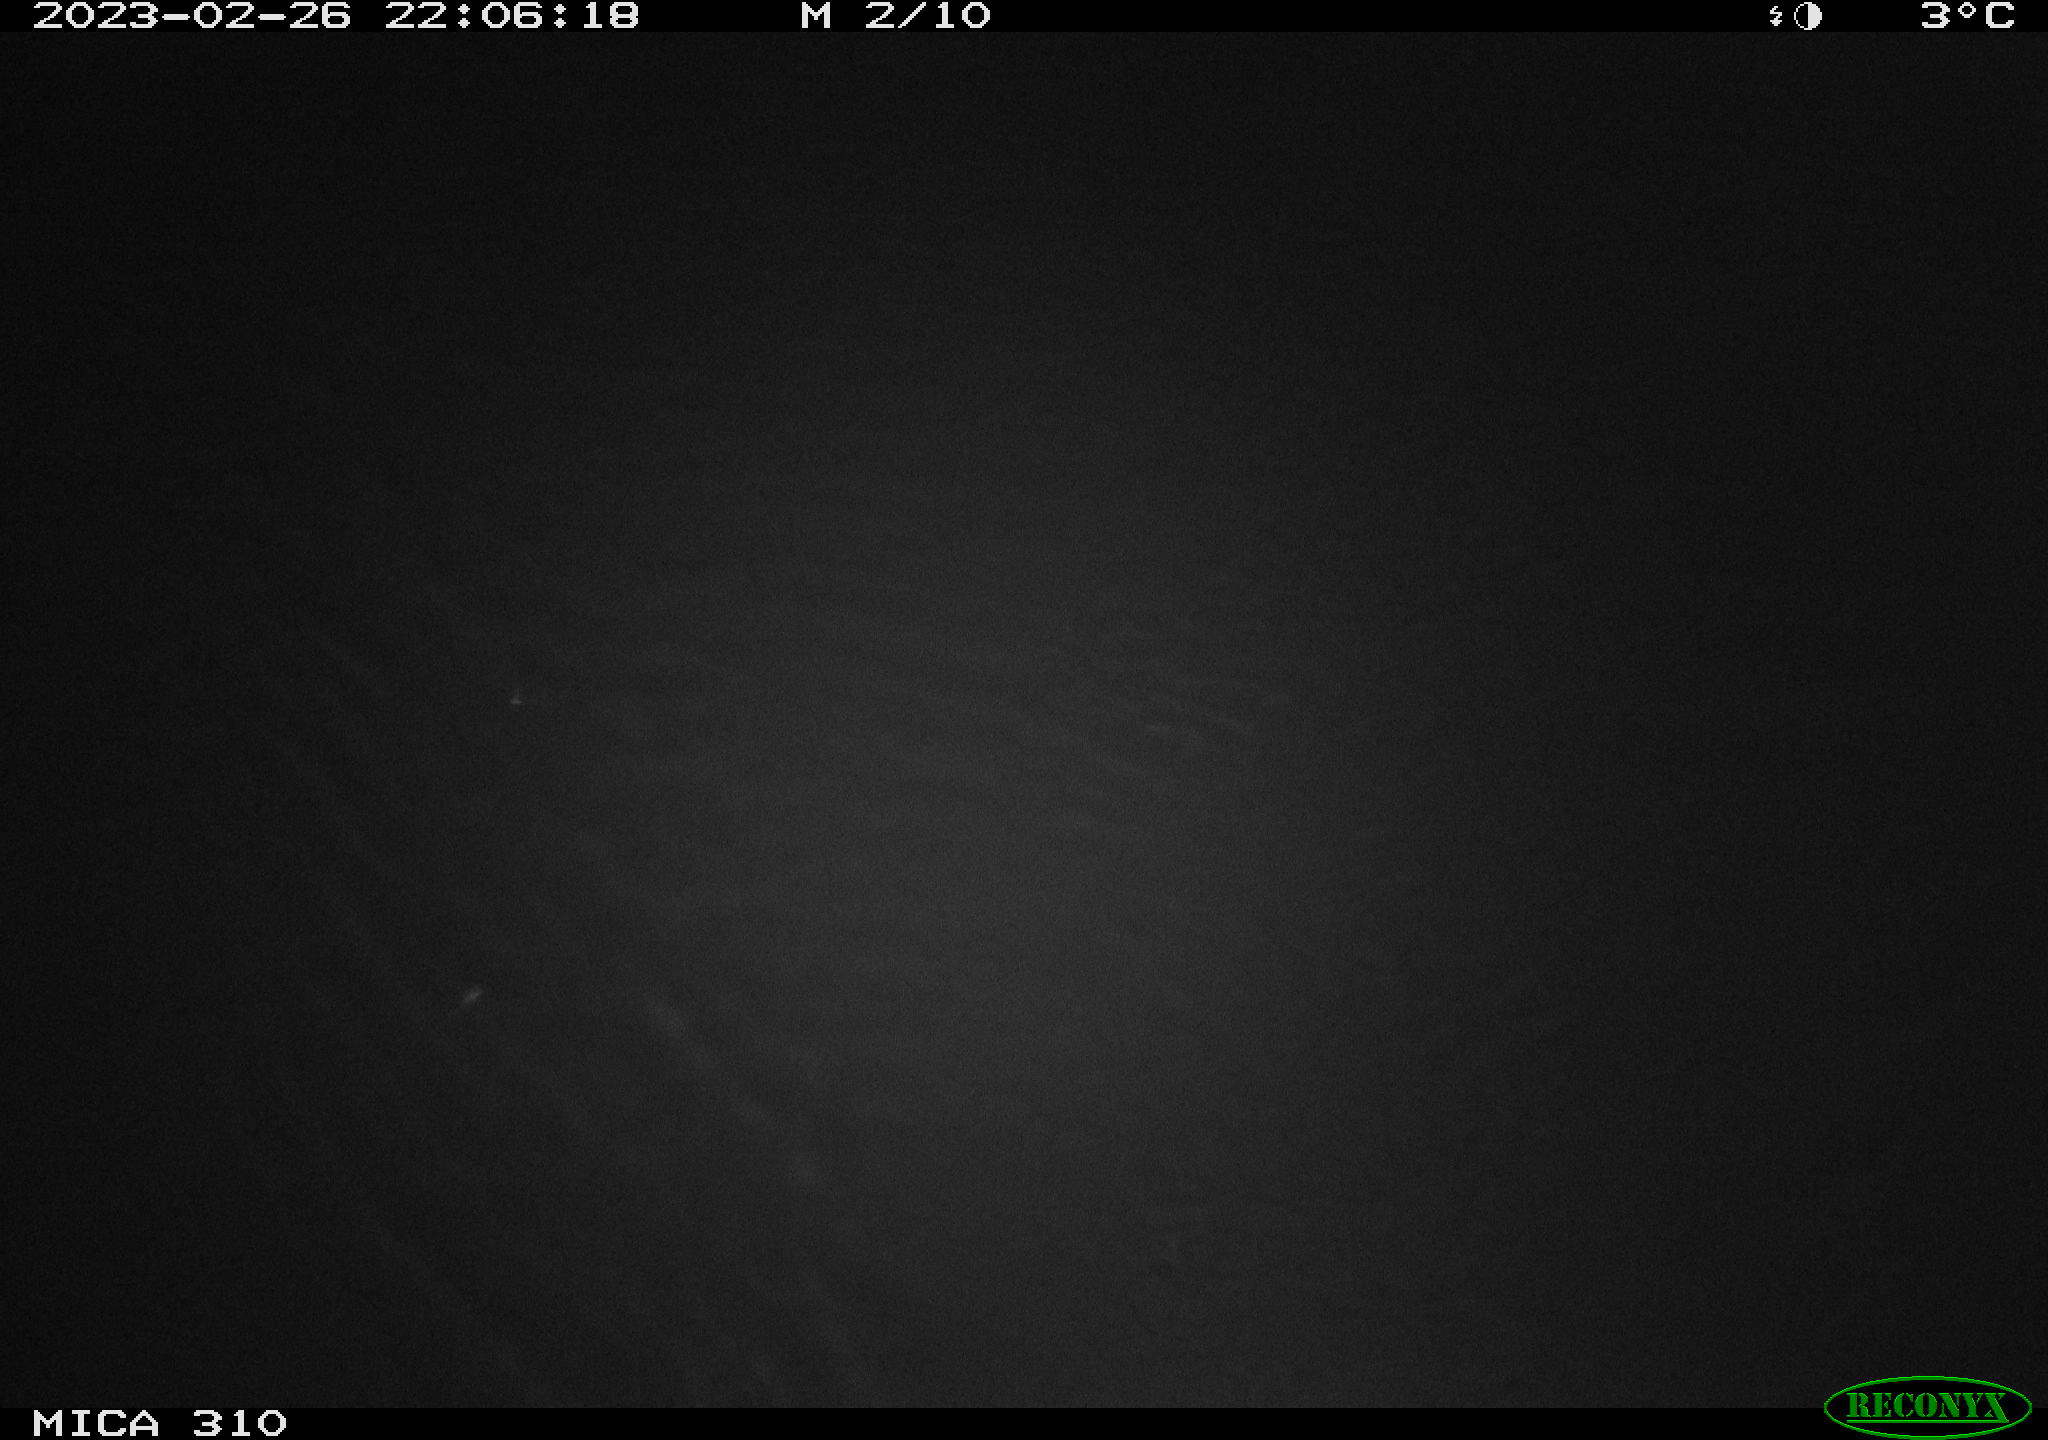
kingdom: Animalia
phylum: Chordata
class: Aves
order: Anseriformes
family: Anatidae
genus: Anas
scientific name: Anas
